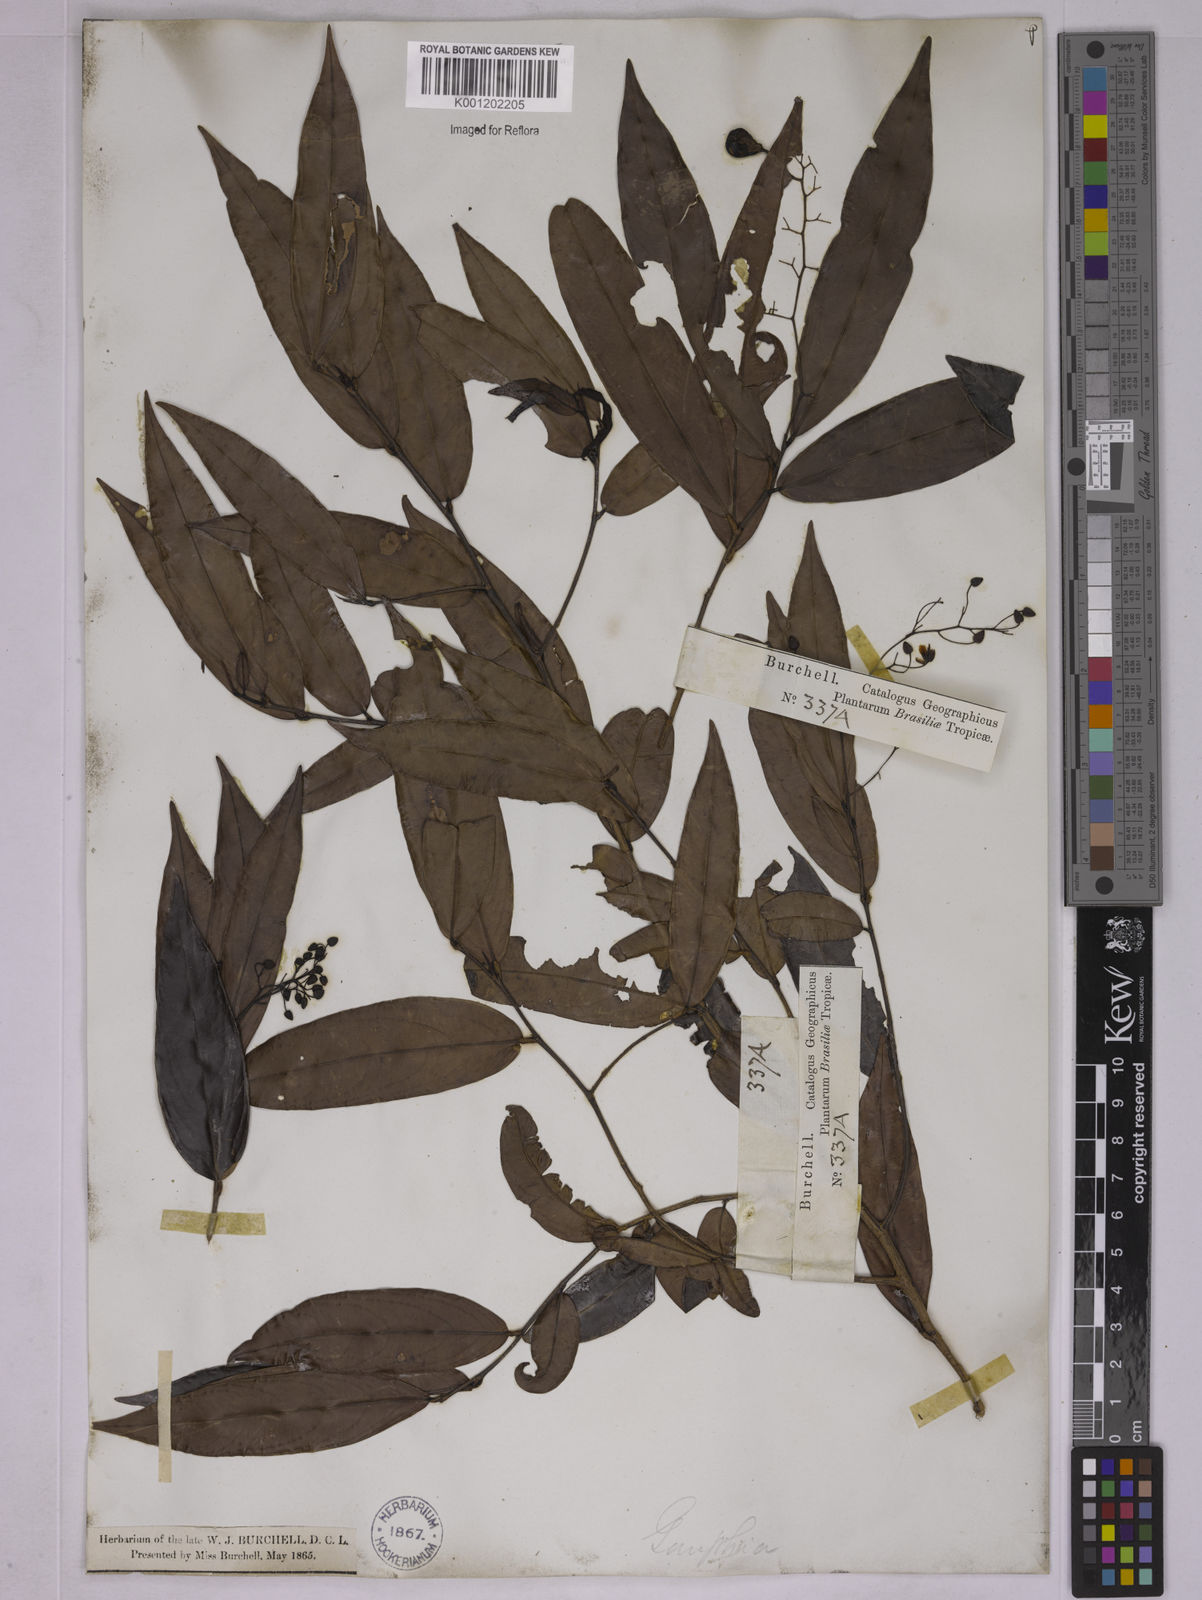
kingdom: Plantae
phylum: Tracheophyta
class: Magnoliopsida
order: Malpighiales
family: Ochnaceae
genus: Ouratea
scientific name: Ouratea
